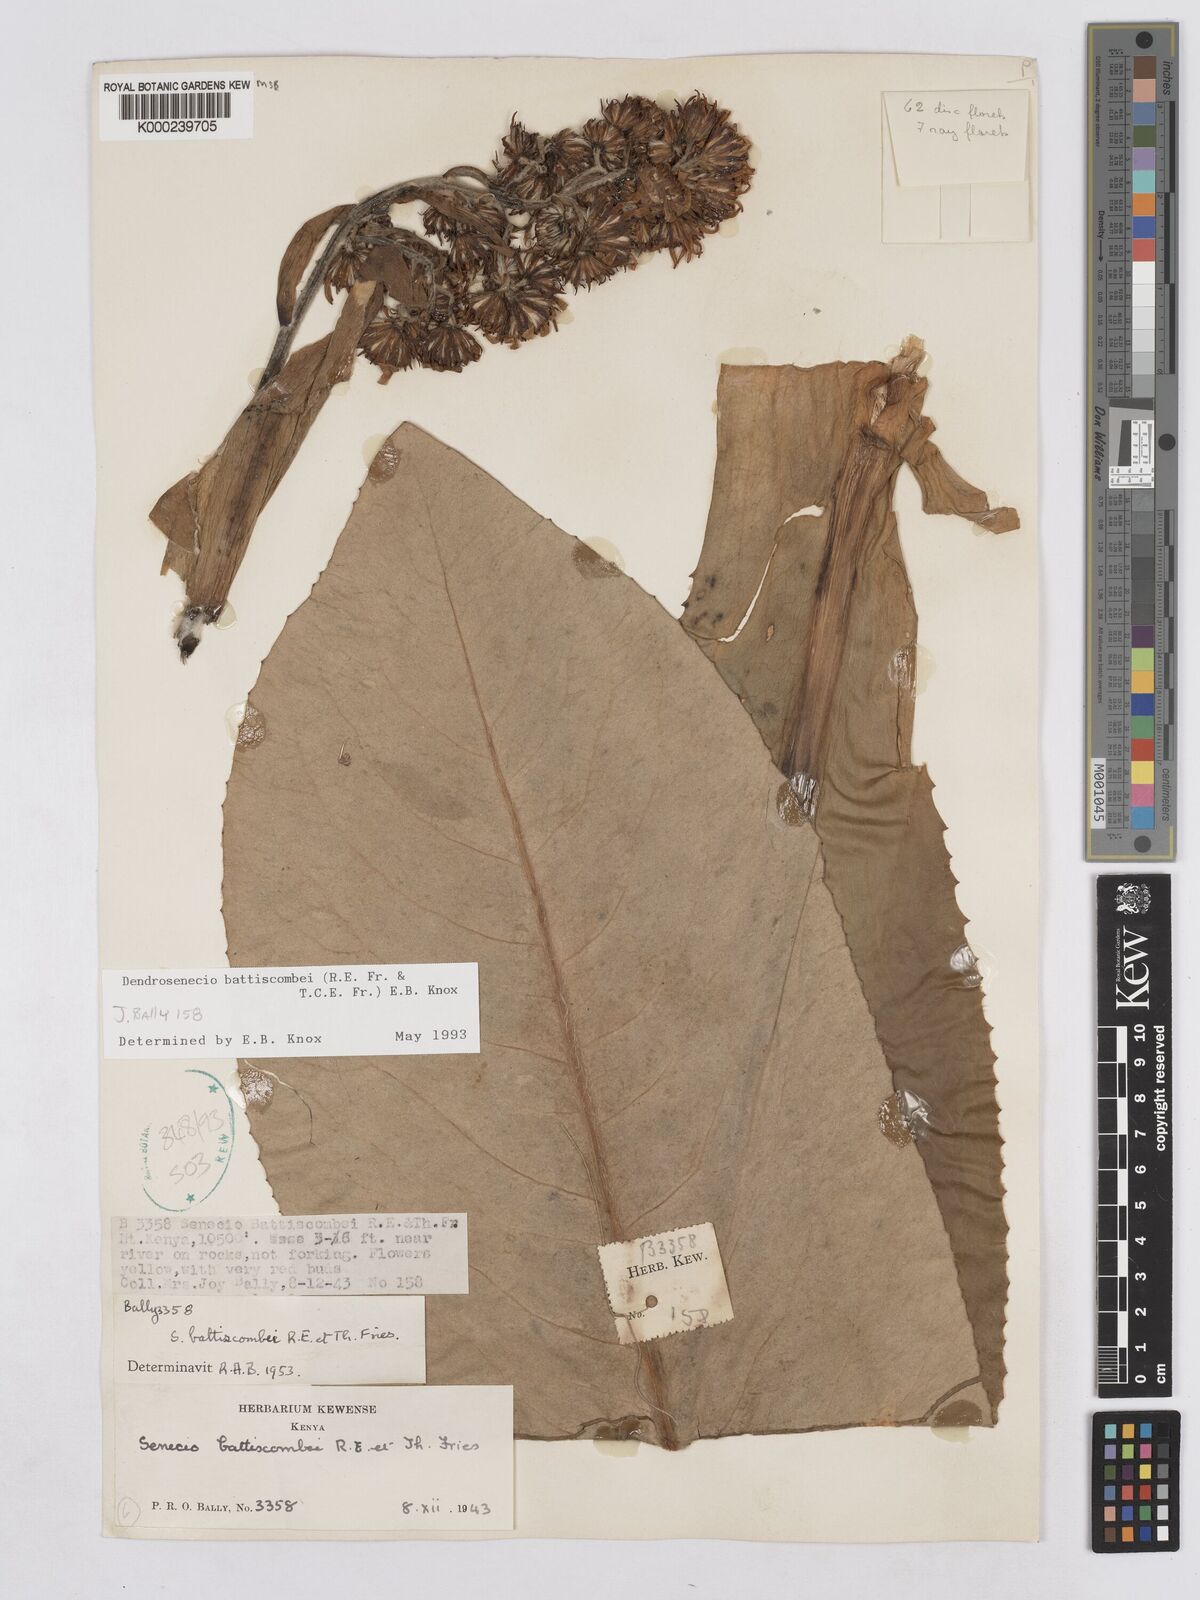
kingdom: Plantae
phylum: Tracheophyta
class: Magnoliopsida
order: Asterales
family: Asteraceae
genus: Dendrosenecio
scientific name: Dendrosenecio battiscombei
